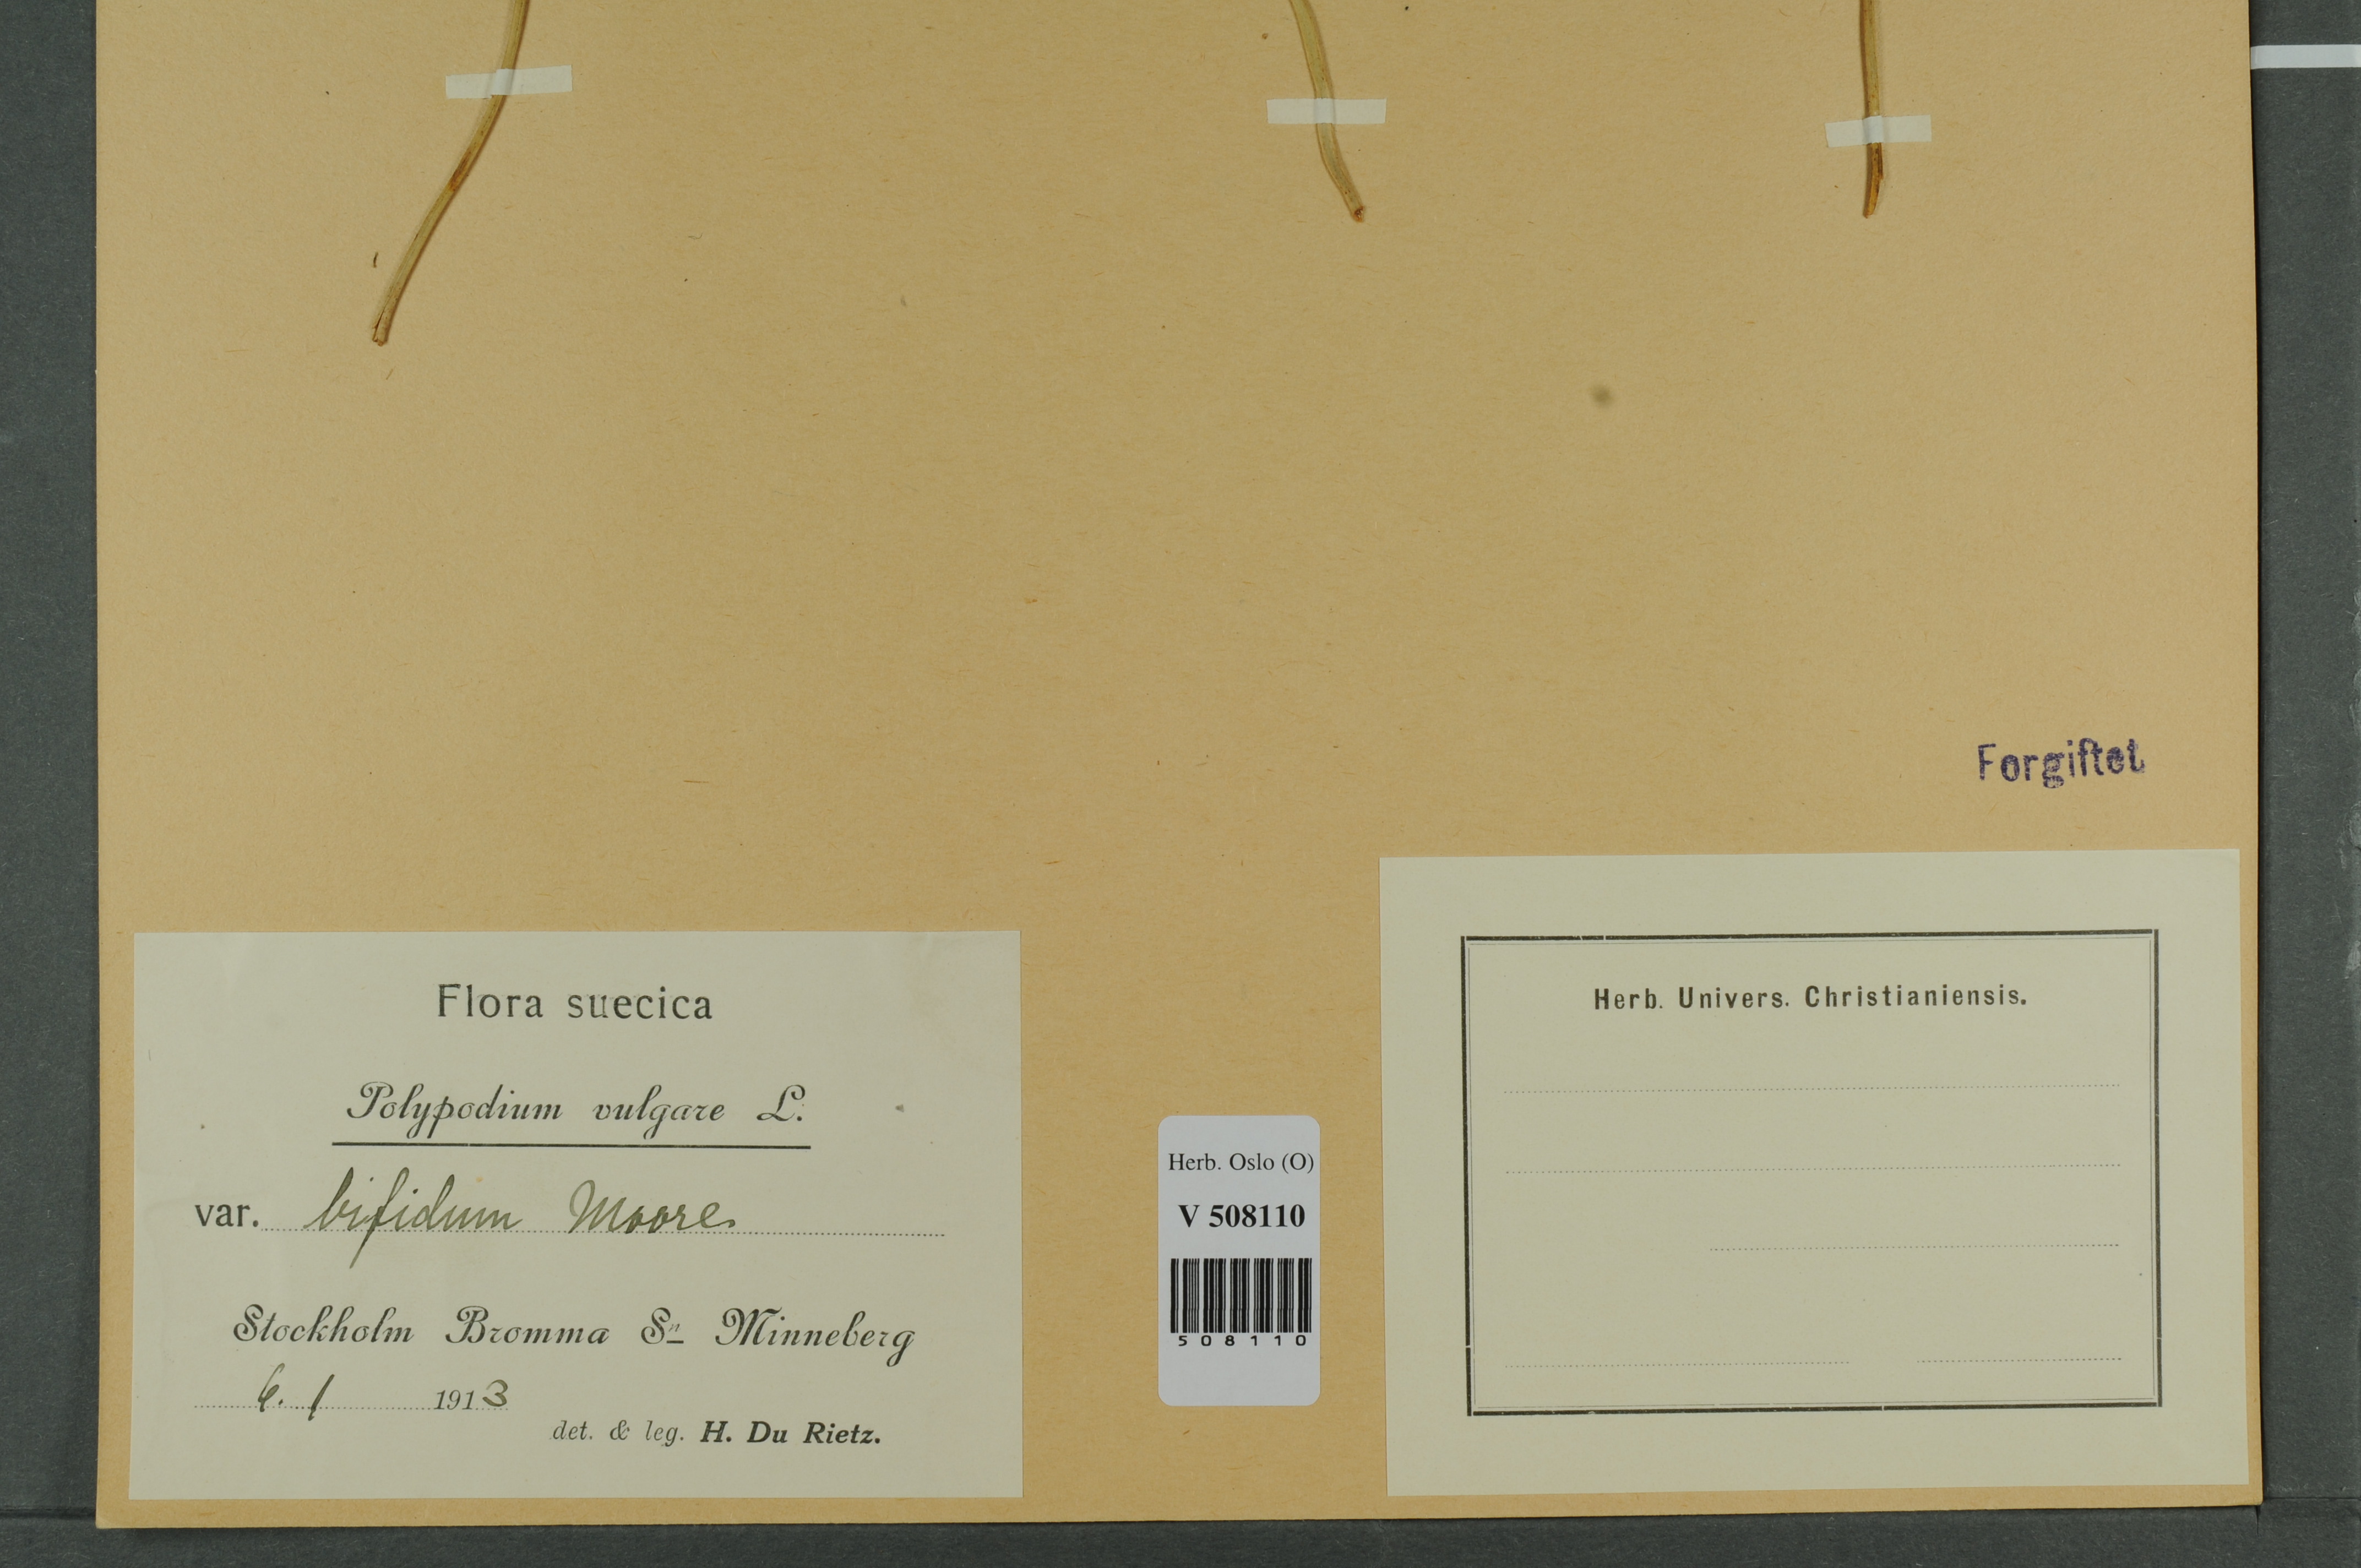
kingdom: Plantae
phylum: Tracheophyta
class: Polypodiopsida
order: Polypodiales
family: Polypodiaceae
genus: Polypodium
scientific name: Polypodium vulgare
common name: Common polypody
